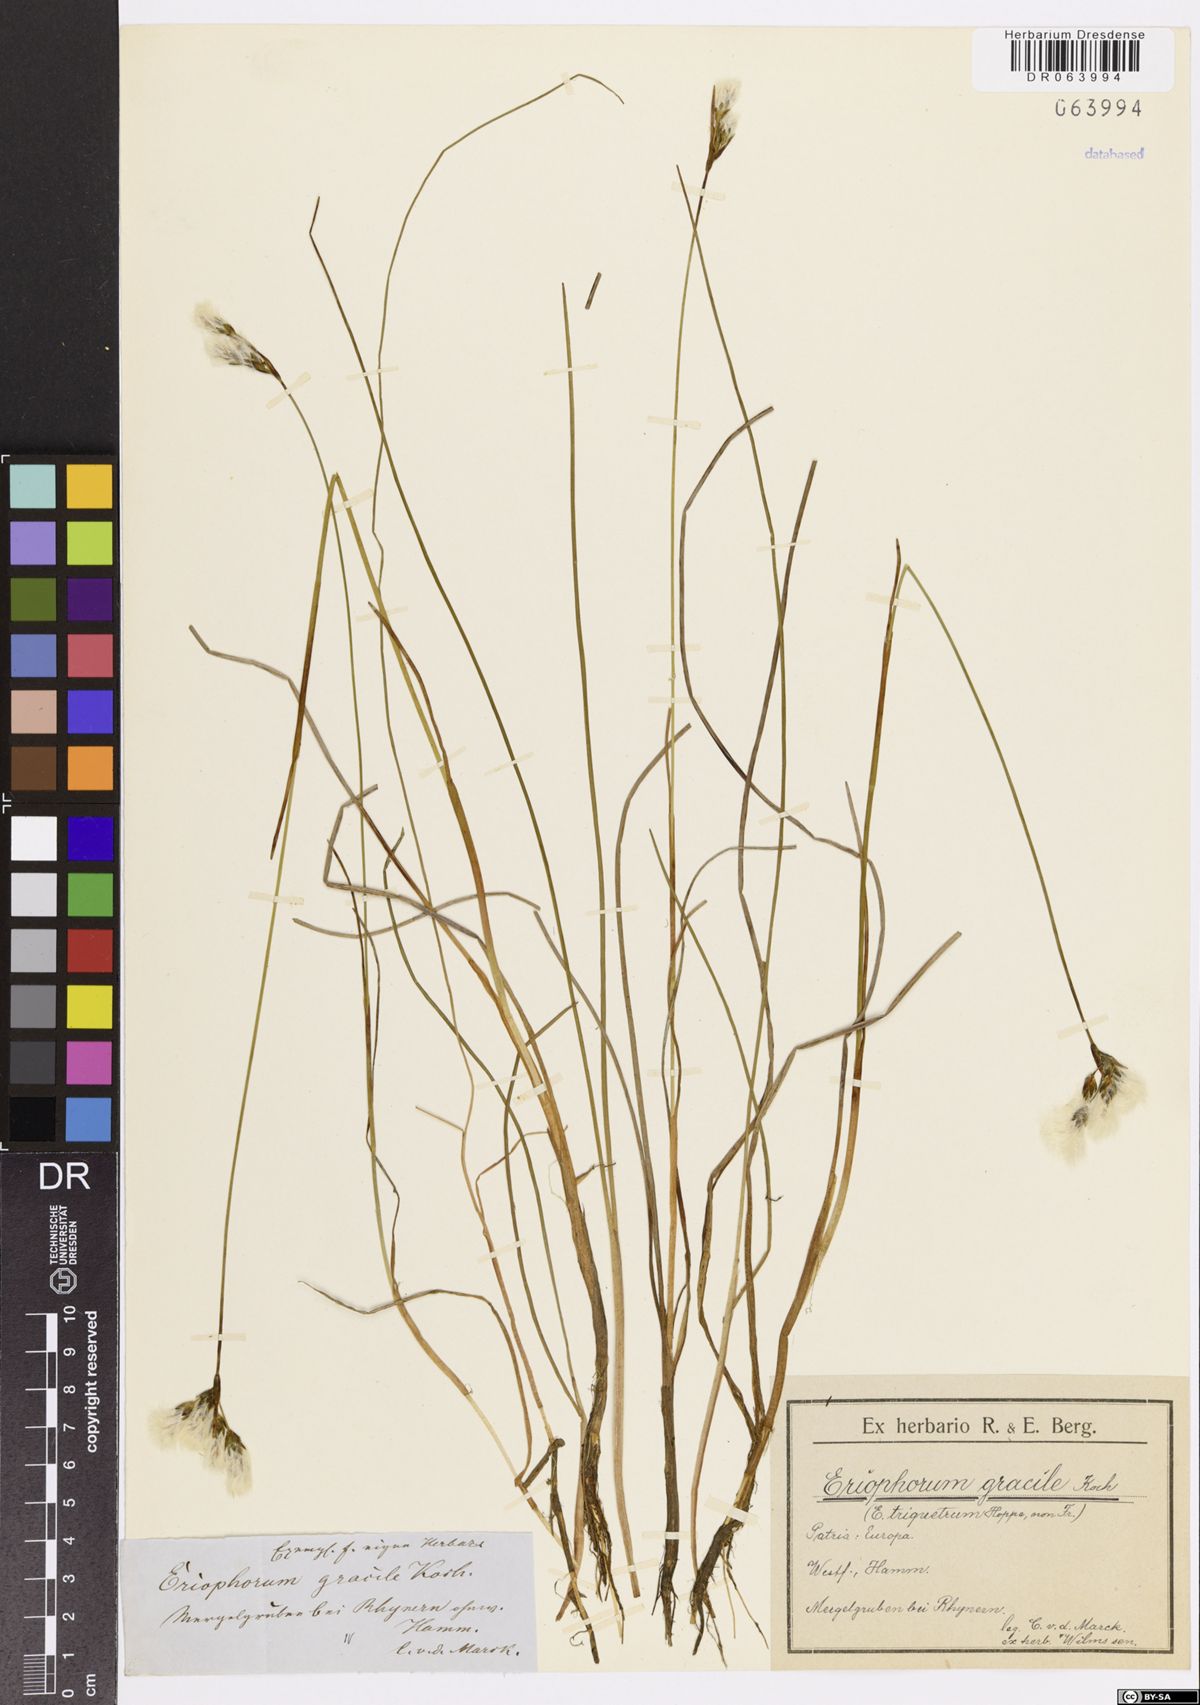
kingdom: Plantae
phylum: Tracheophyta
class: Liliopsida
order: Poales
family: Cyperaceae
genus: Eriophorum
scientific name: Eriophorum gracile
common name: Slender cottongrass
